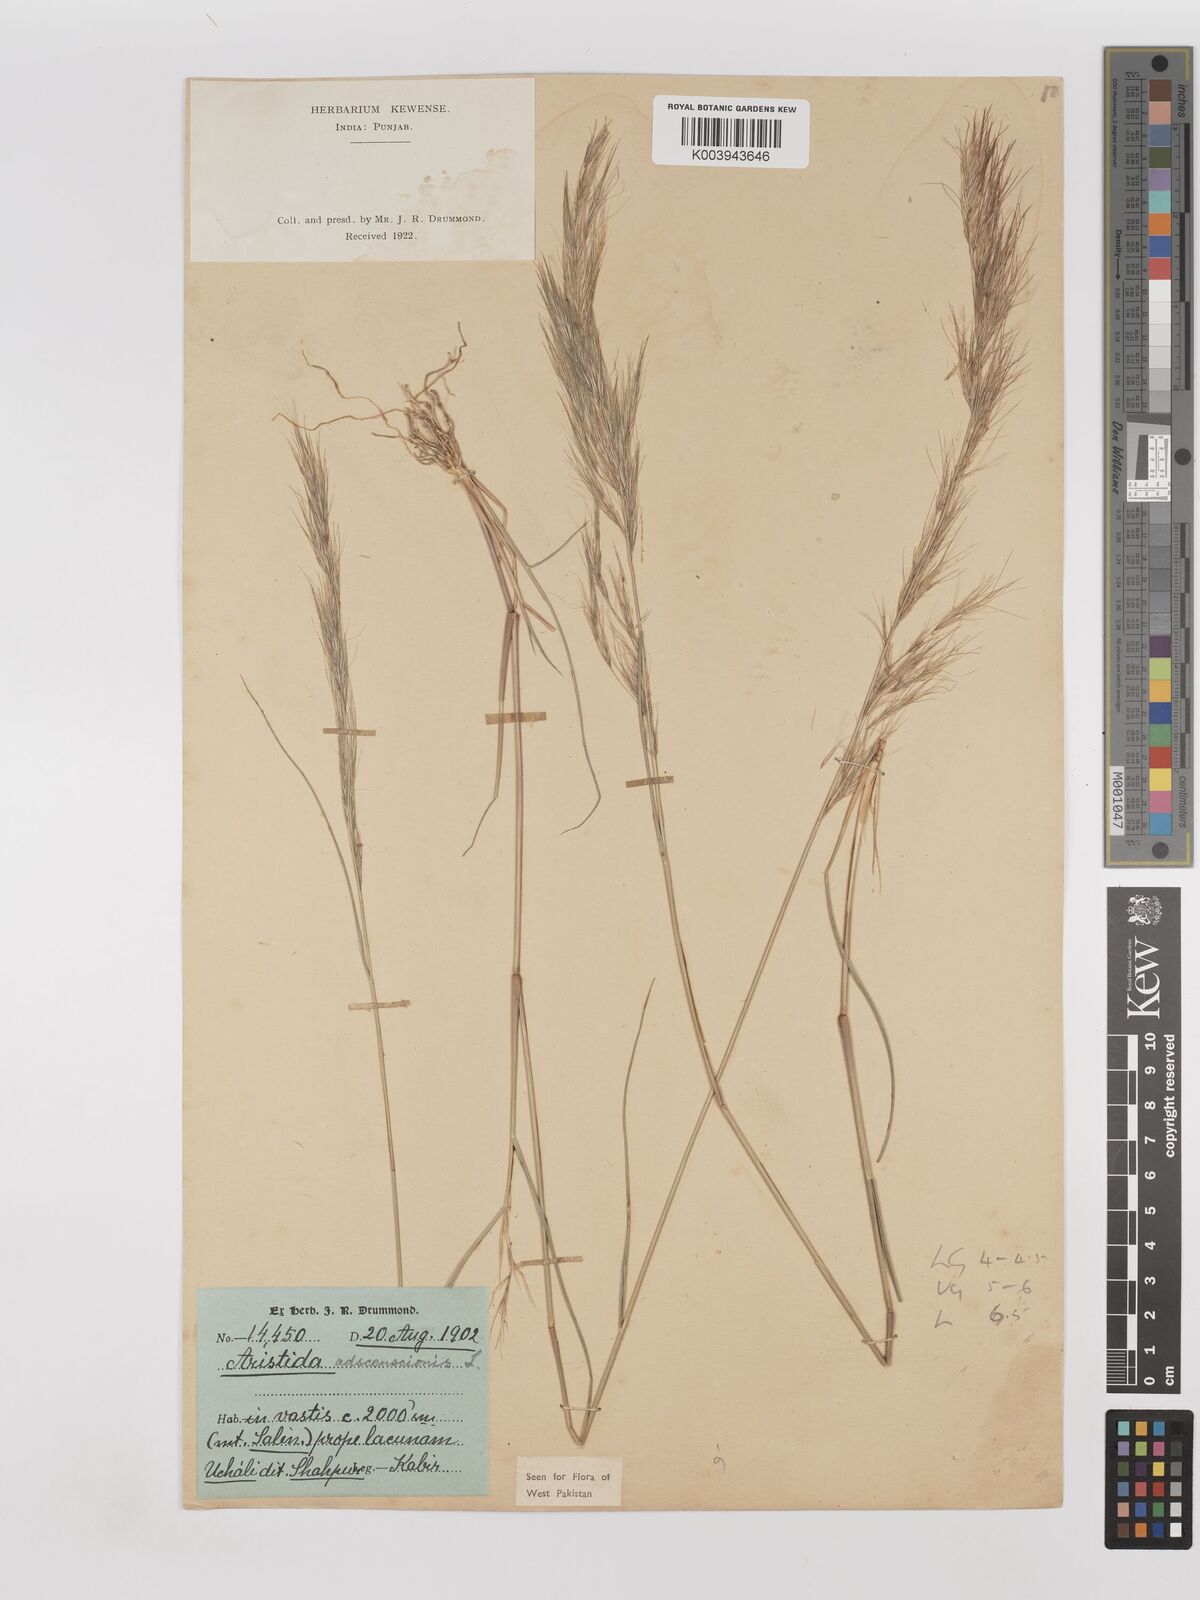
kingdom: Plantae
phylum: Tracheophyta
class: Liliopsida
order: Poales
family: Poaceae
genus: Aristida
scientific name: Aristida adscensionis
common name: Sixweeks threeawn
